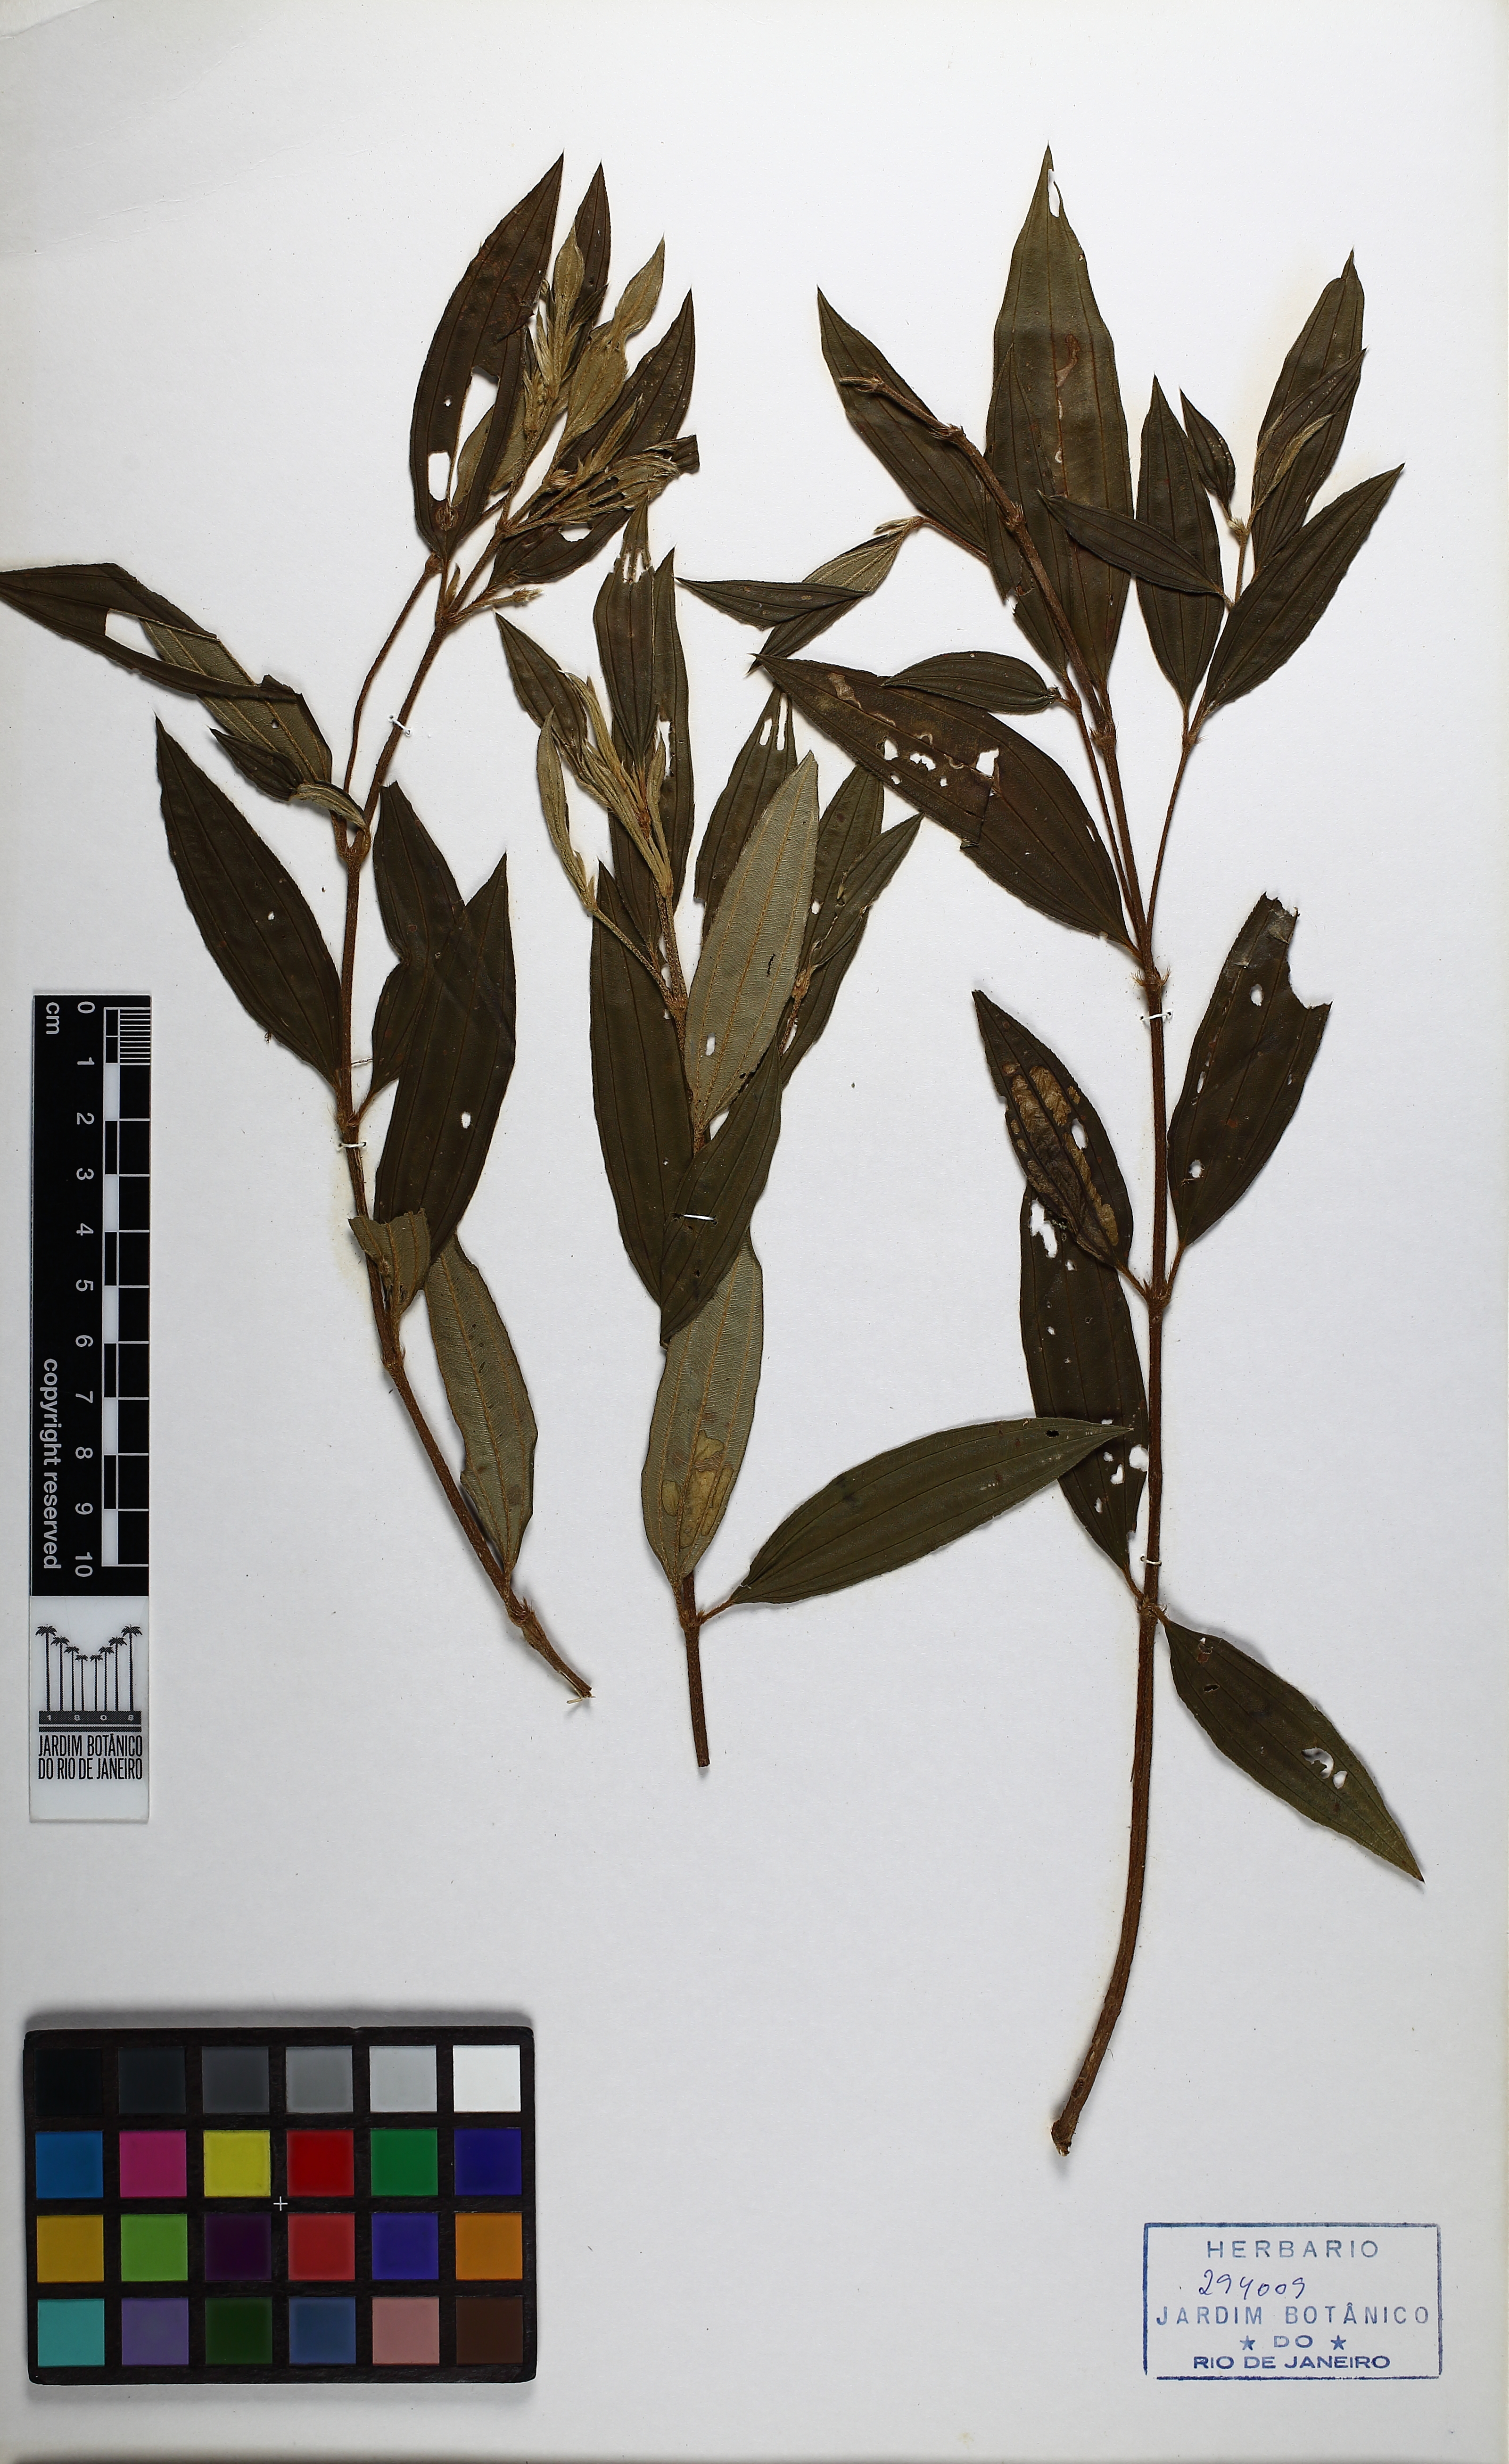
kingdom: Plantae
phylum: Tracheophyta
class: Magnoliopsida
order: Myrtales
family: Melastomataceae
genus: Pleroma
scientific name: Pleroma fissinervium
